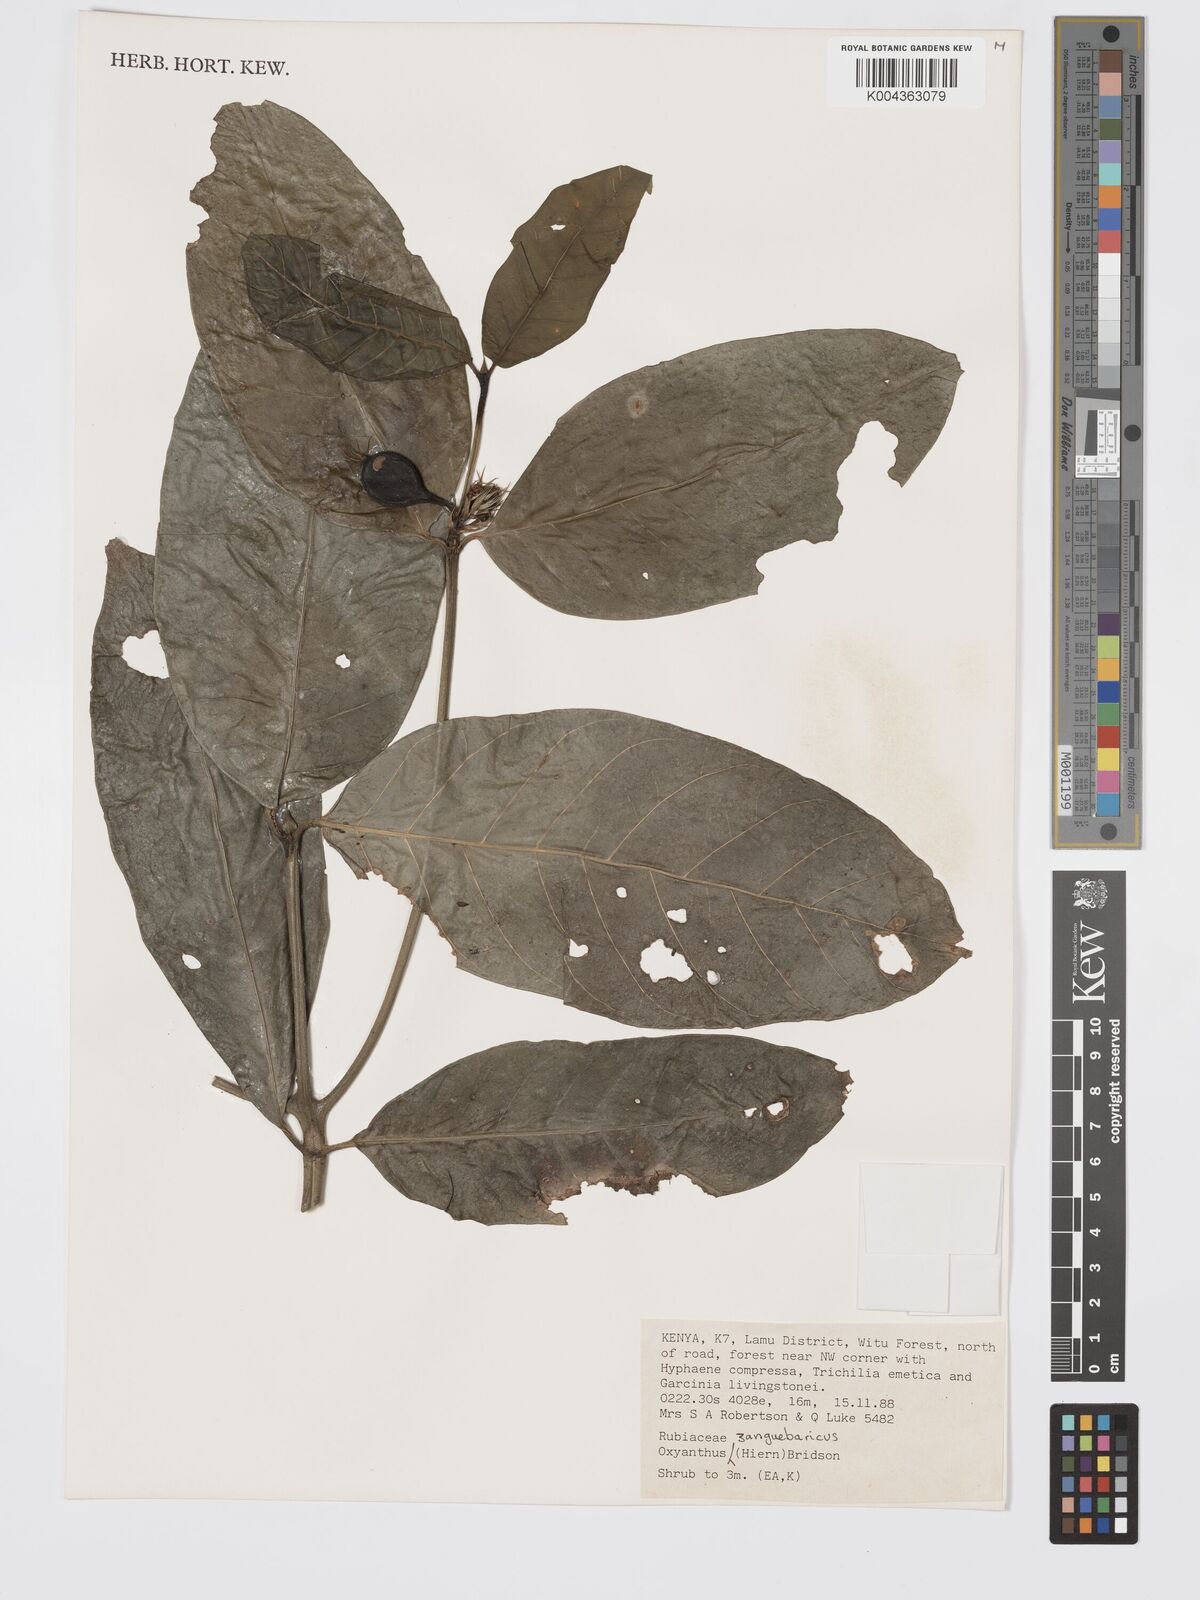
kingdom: Plantae
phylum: Tracheophyta
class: Magnoliopsida
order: Gentianales
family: Rubiaceae
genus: Oxyanthus
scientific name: Oxyanthus zanguebaricus
